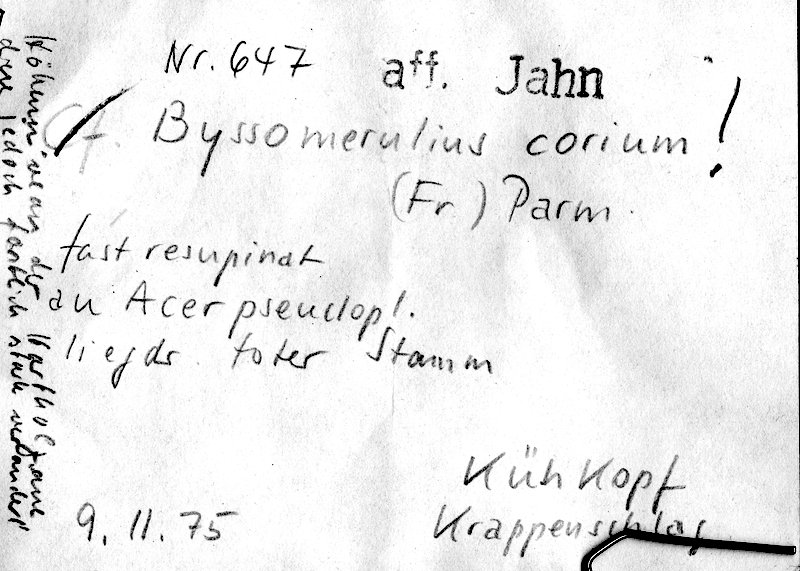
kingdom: Fungi
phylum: Basidiomycota
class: Agaricomycetes
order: Polyporales
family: Irpicaceae
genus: Byssomerulius
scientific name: Byssomerulius corium
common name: Netted crust
